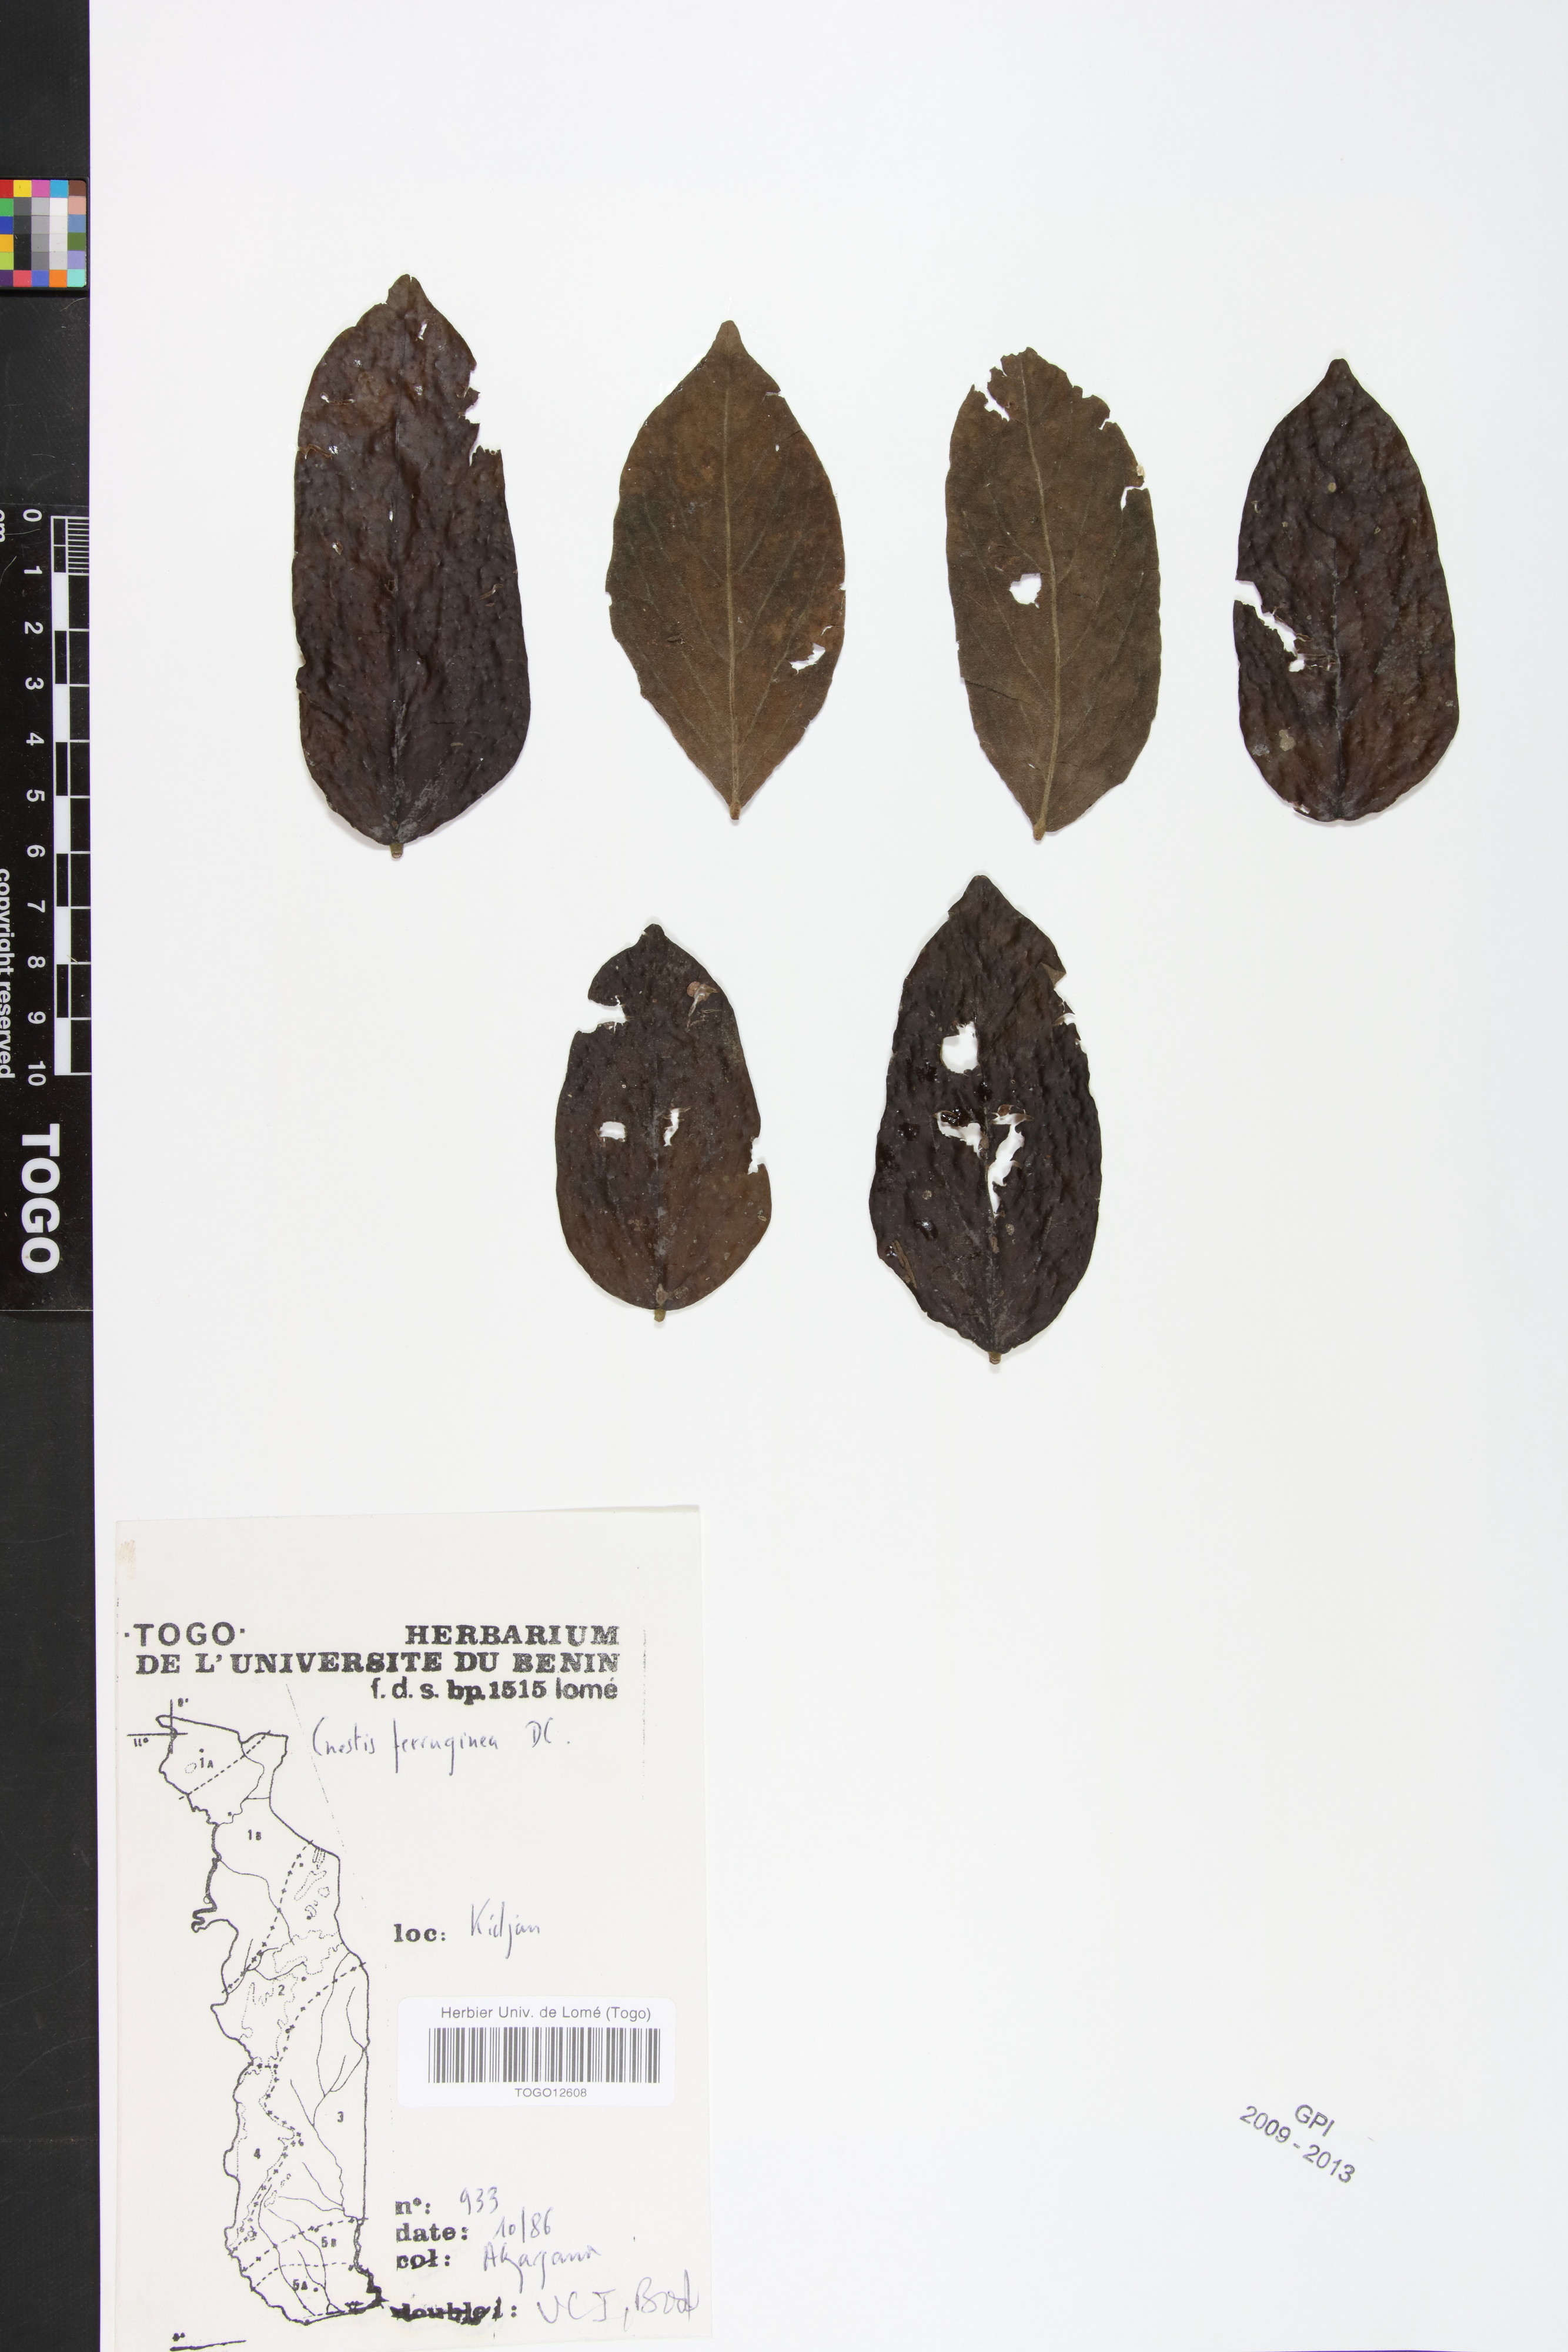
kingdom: Plantae
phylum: Tracheophyta
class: Magnoliopsida
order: Oxalidales
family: Connaraceae
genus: Cnestis
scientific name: Cnestis ferruginea
